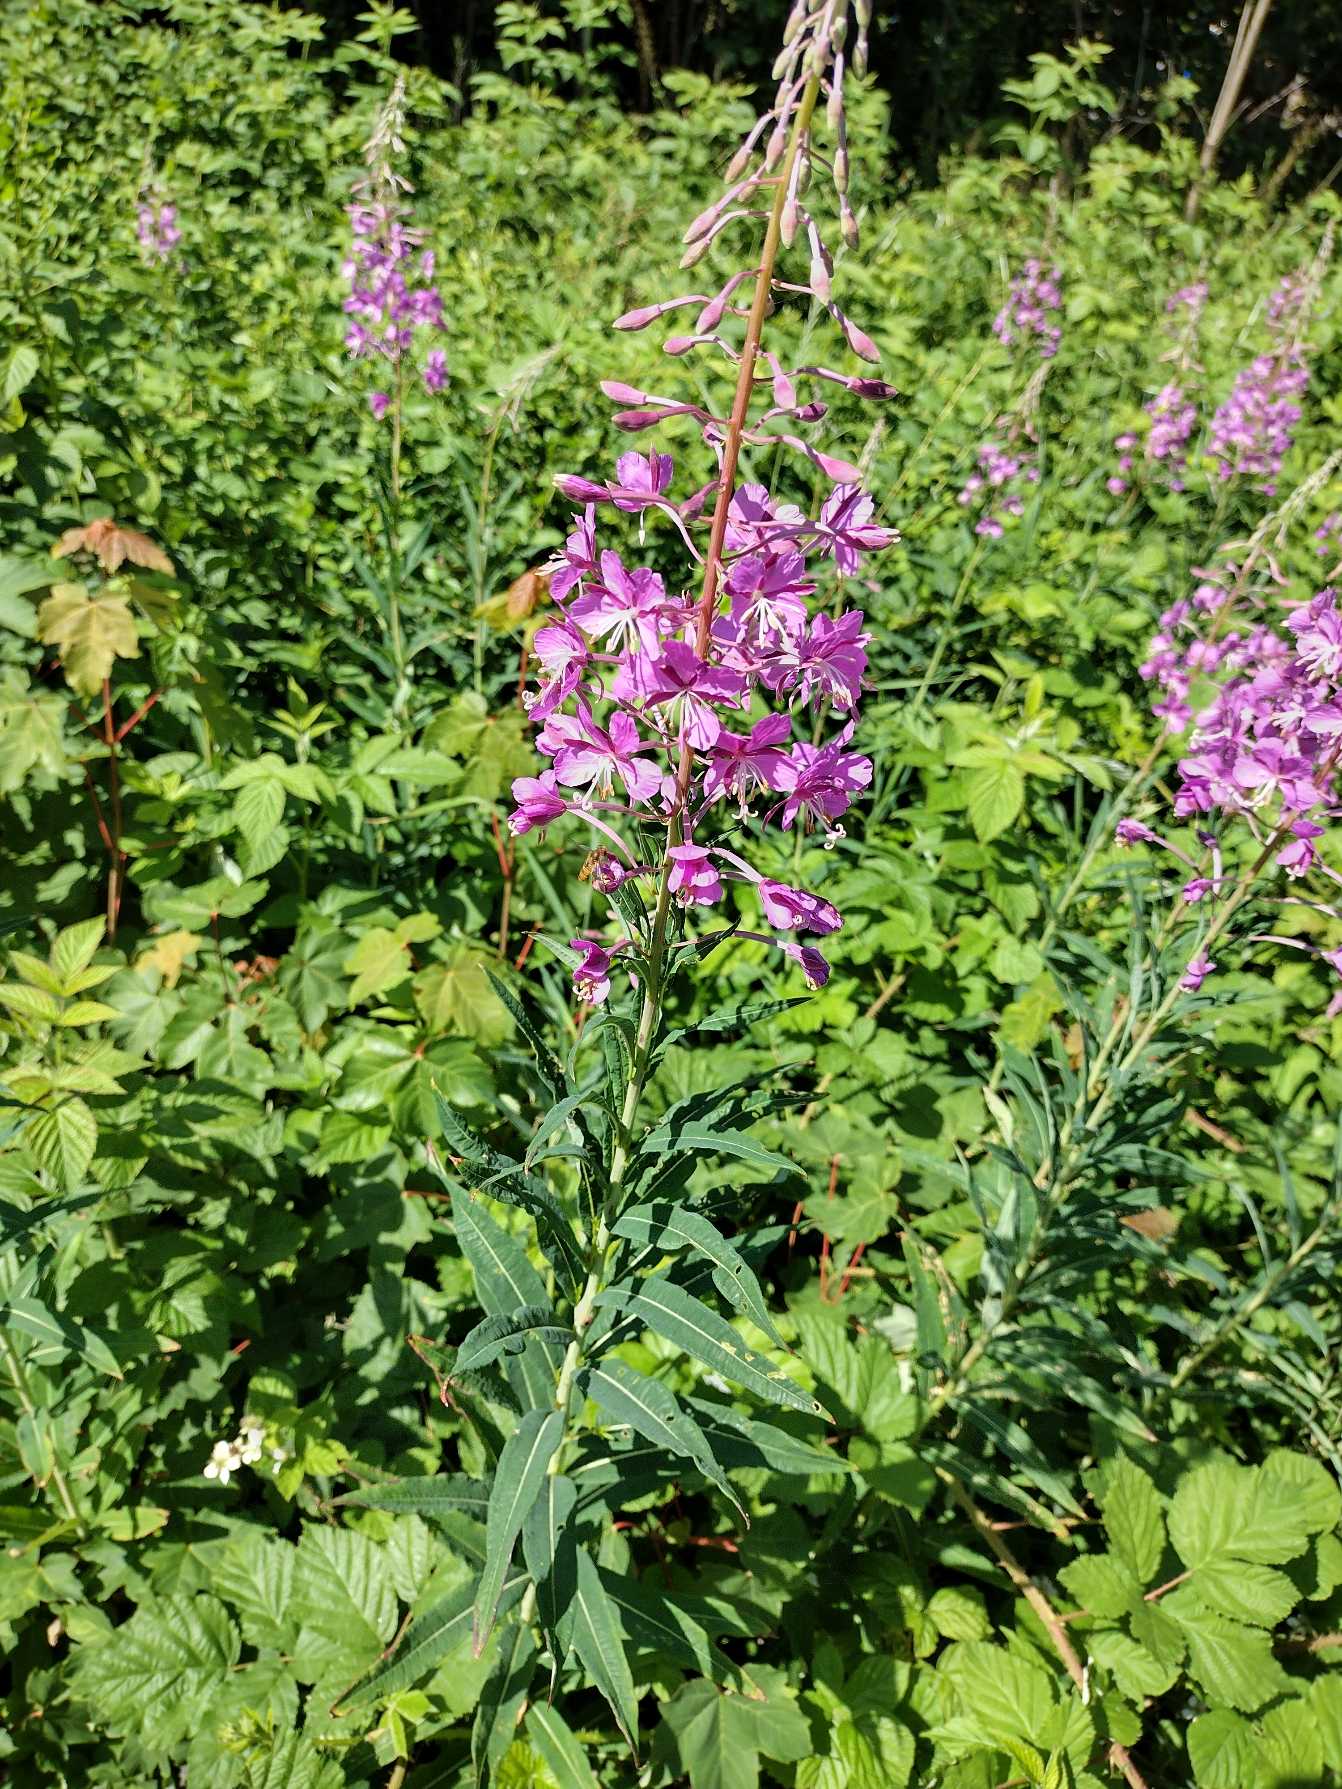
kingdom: Plantae
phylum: Tracheophyta
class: Magnoliopsida
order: Myrtales
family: Onagraceae
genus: Chamaenerion
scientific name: Chamaenerion angustifolium
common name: Gederams
